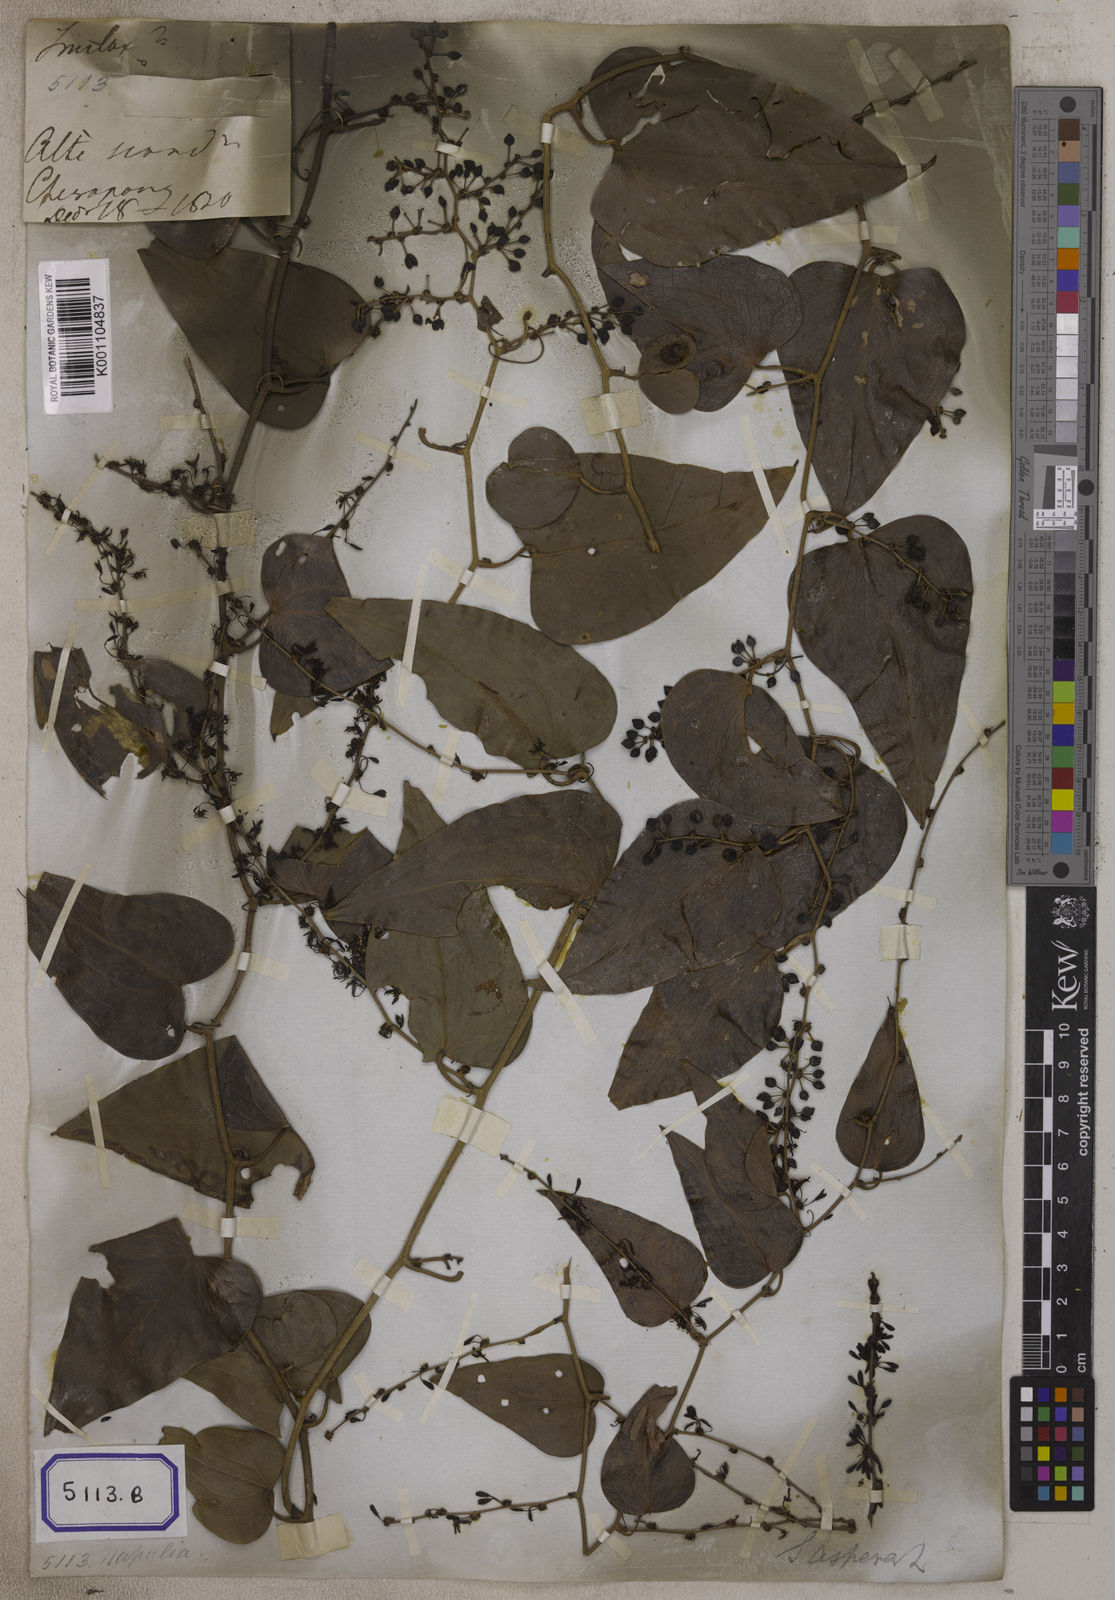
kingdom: Plantae
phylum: Tracheophyta
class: Liliopsida
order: Liliales
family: Smilacaceae
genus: Smilax
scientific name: Smilax
